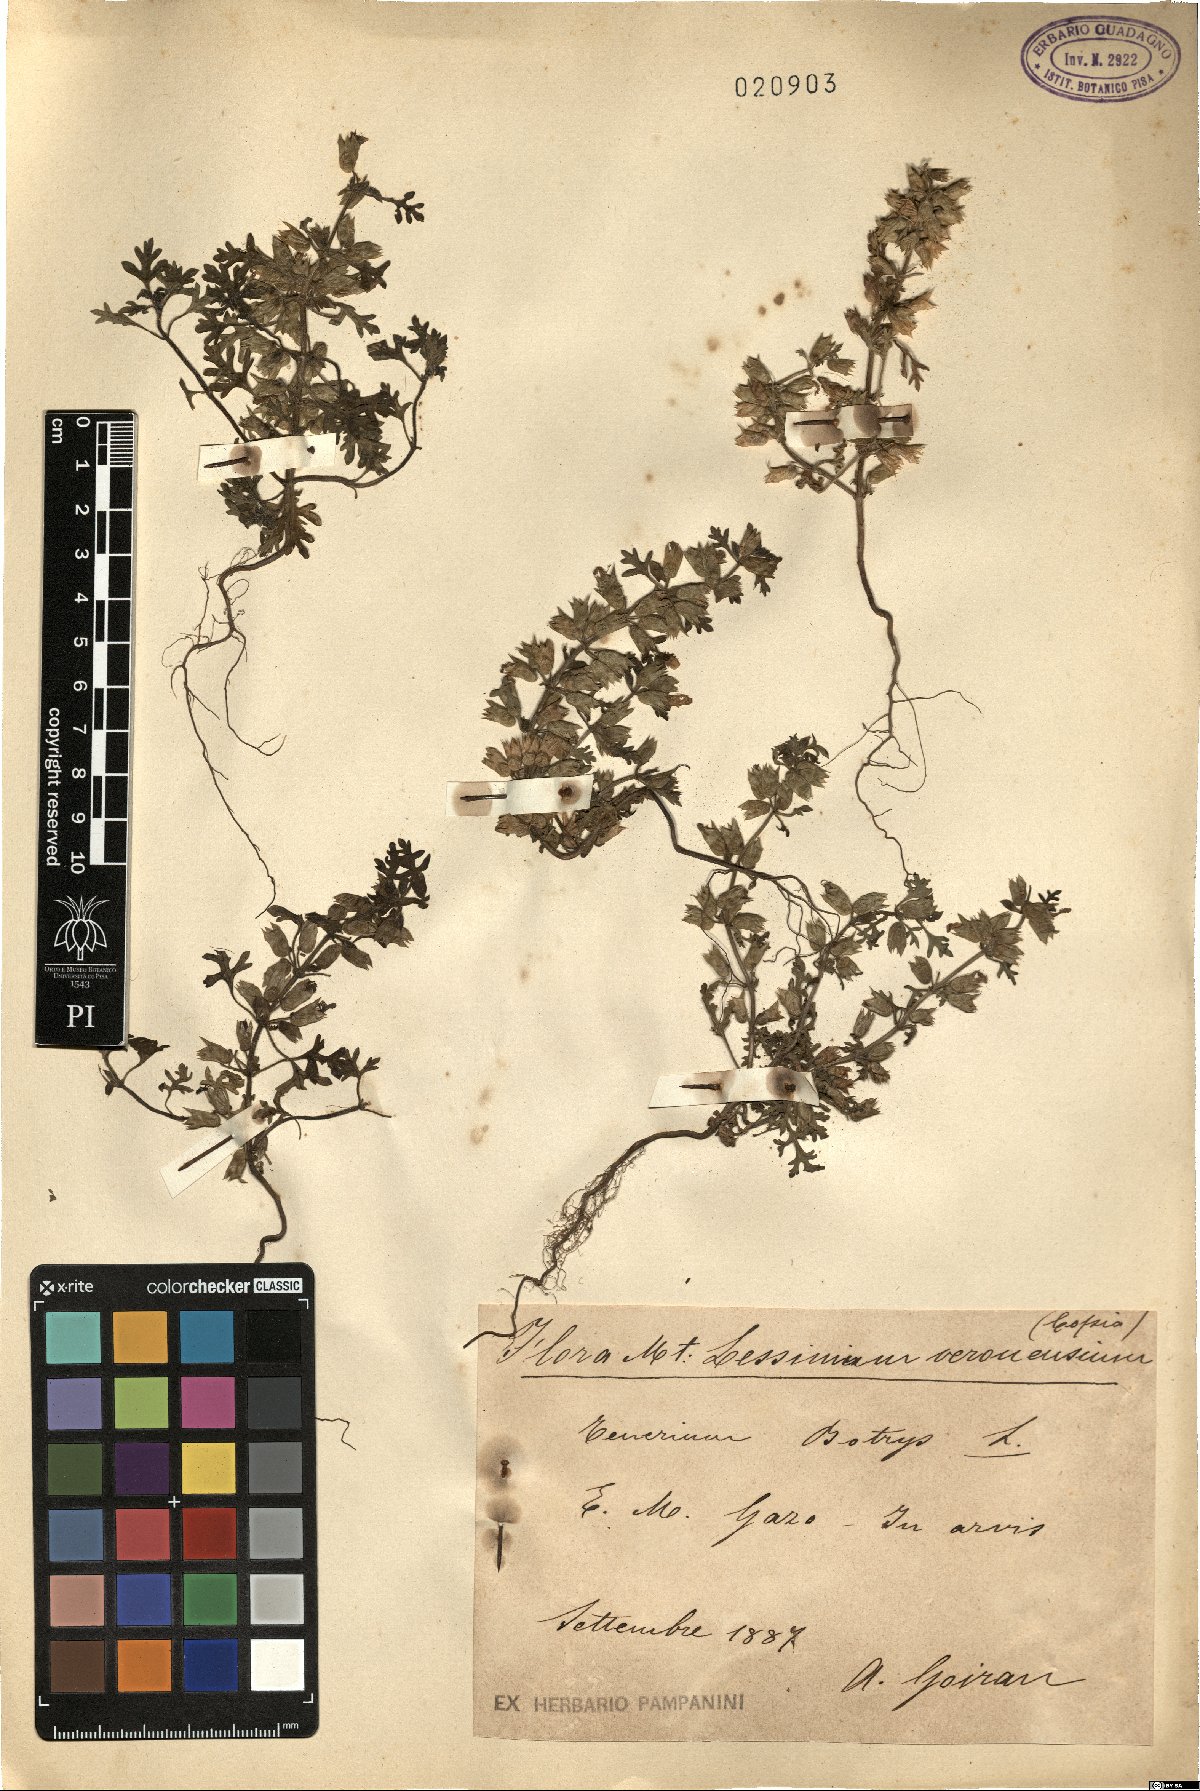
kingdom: Plantae
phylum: Tracheophyta
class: Magnoliopsida
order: Lamiales
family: Lamiaceae
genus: Teucrium
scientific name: Teucrium botrys
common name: Cut-leaved germander
